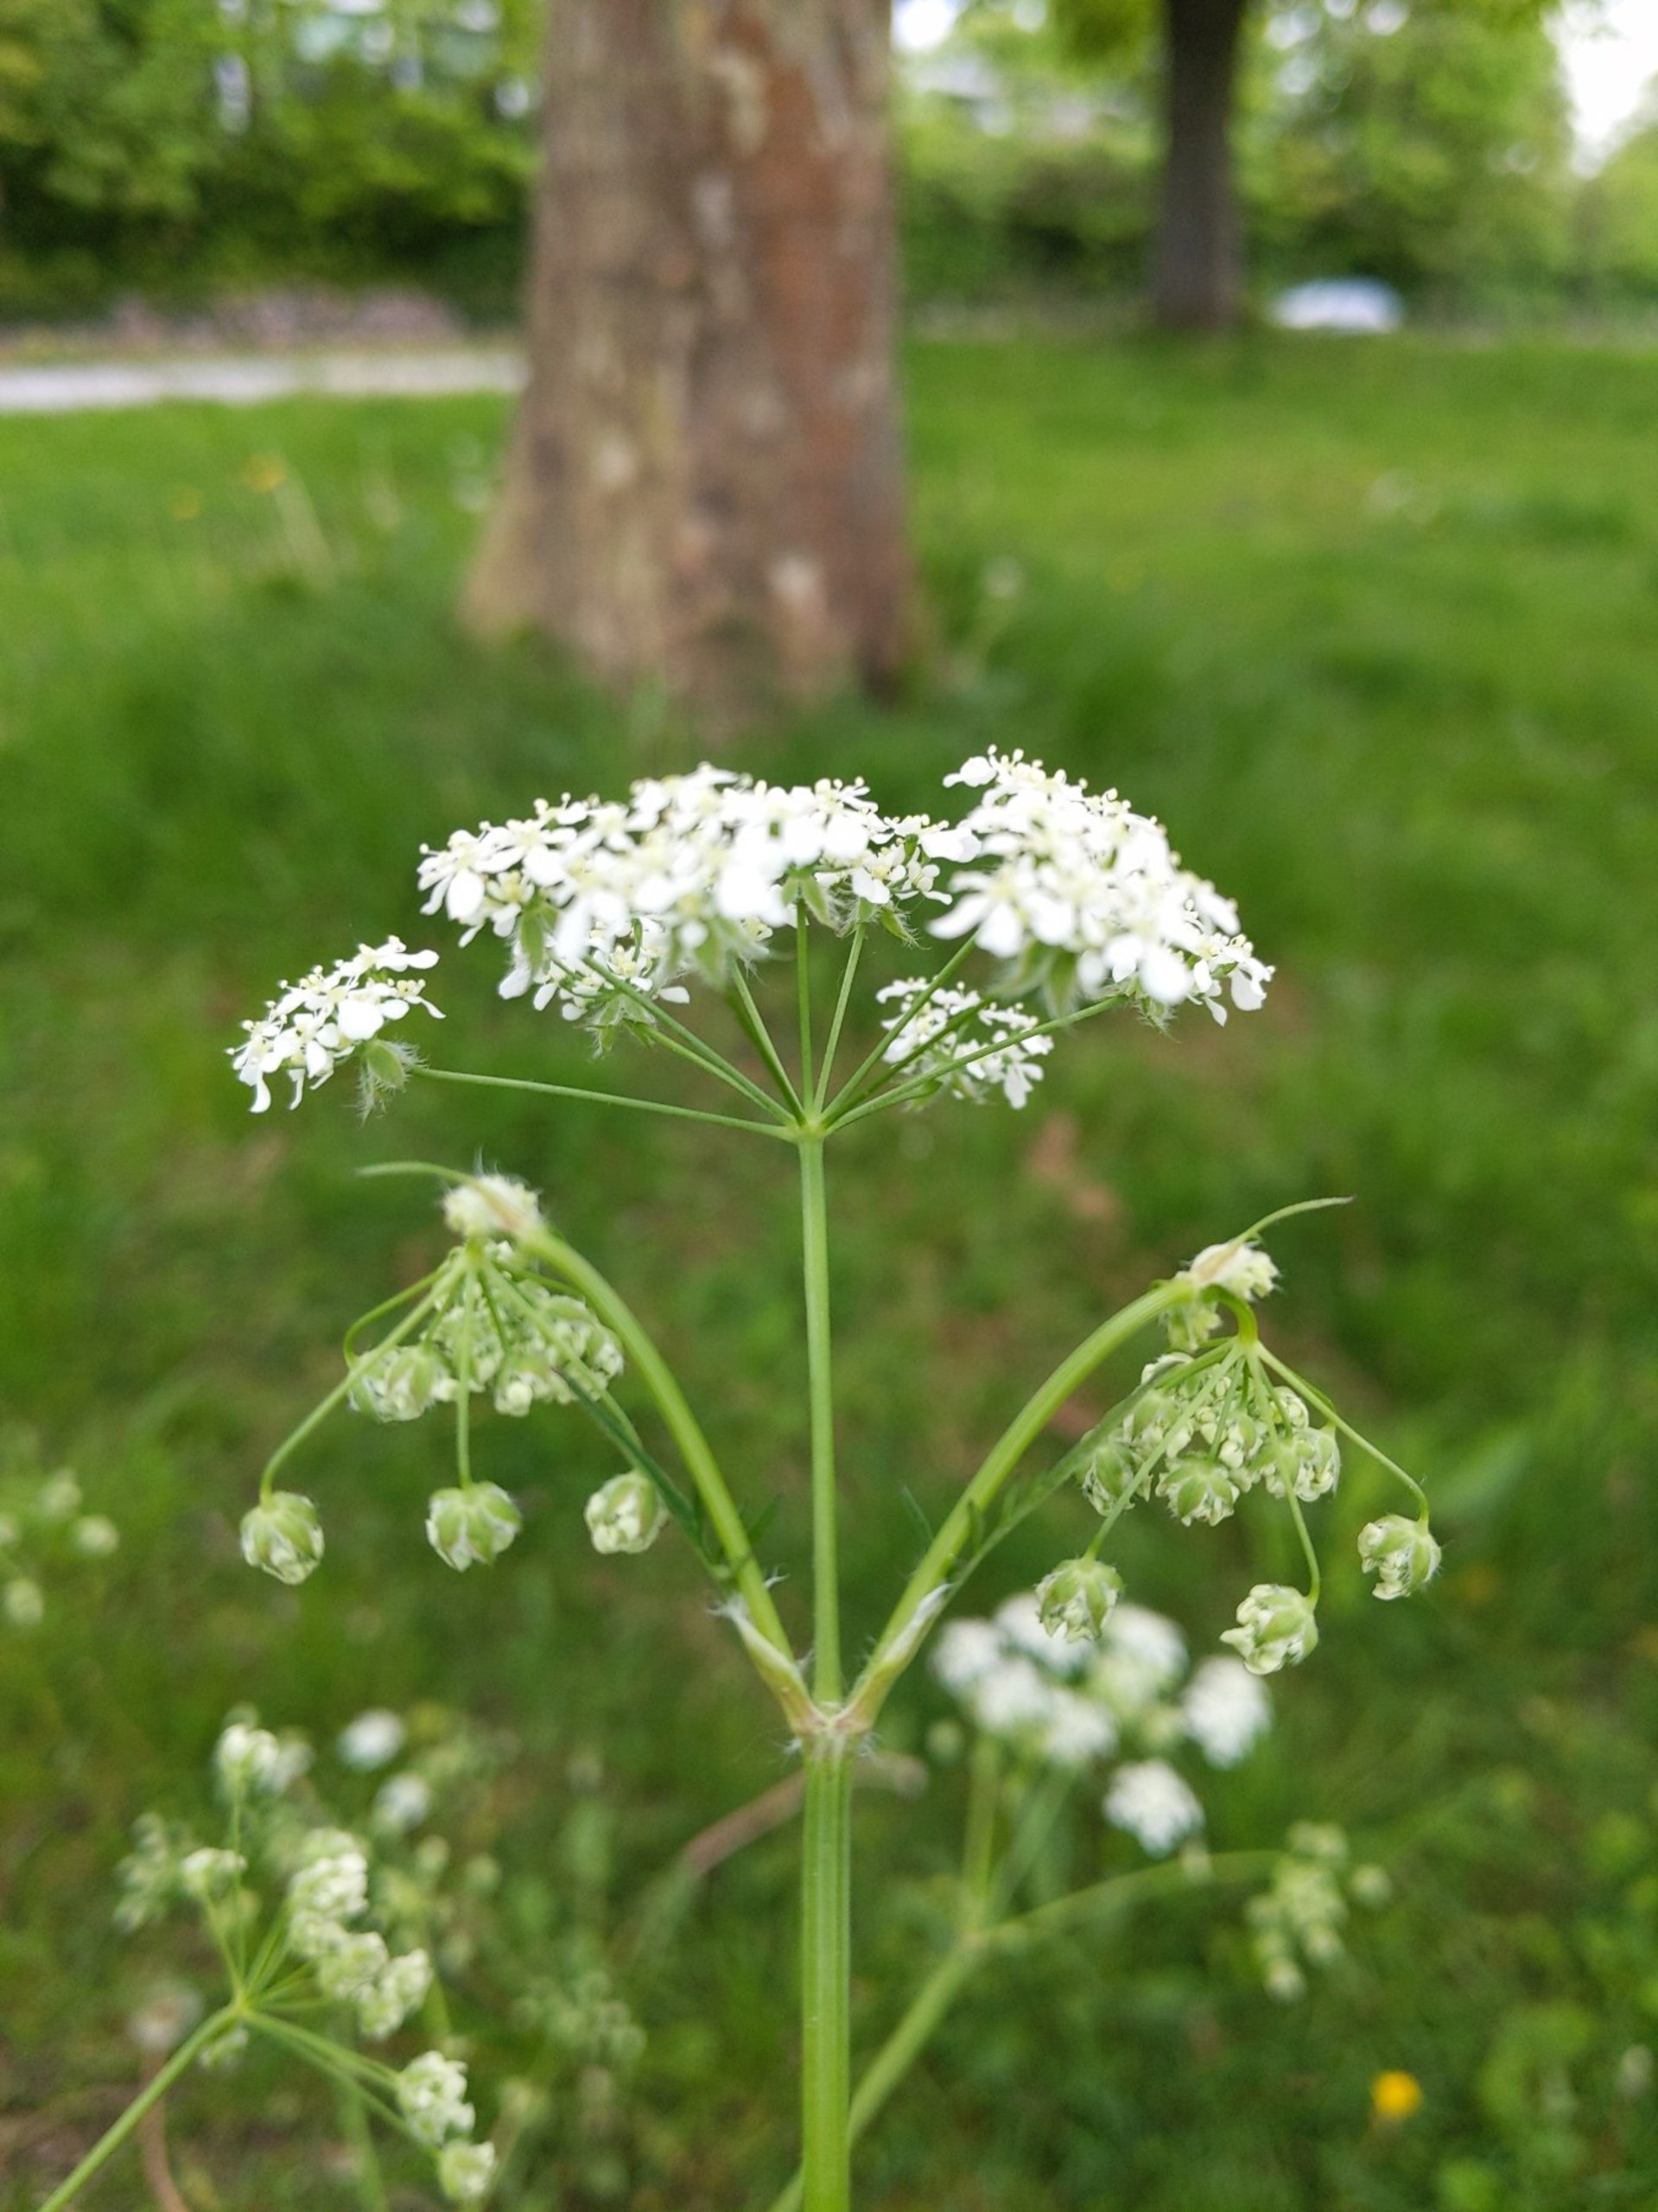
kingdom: Plantae
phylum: Tracheophyta
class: Magnoliopsida
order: Apiales
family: Apiaceae
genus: Anthriscus
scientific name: Anthriscus sylvestris
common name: Vild kørvel
